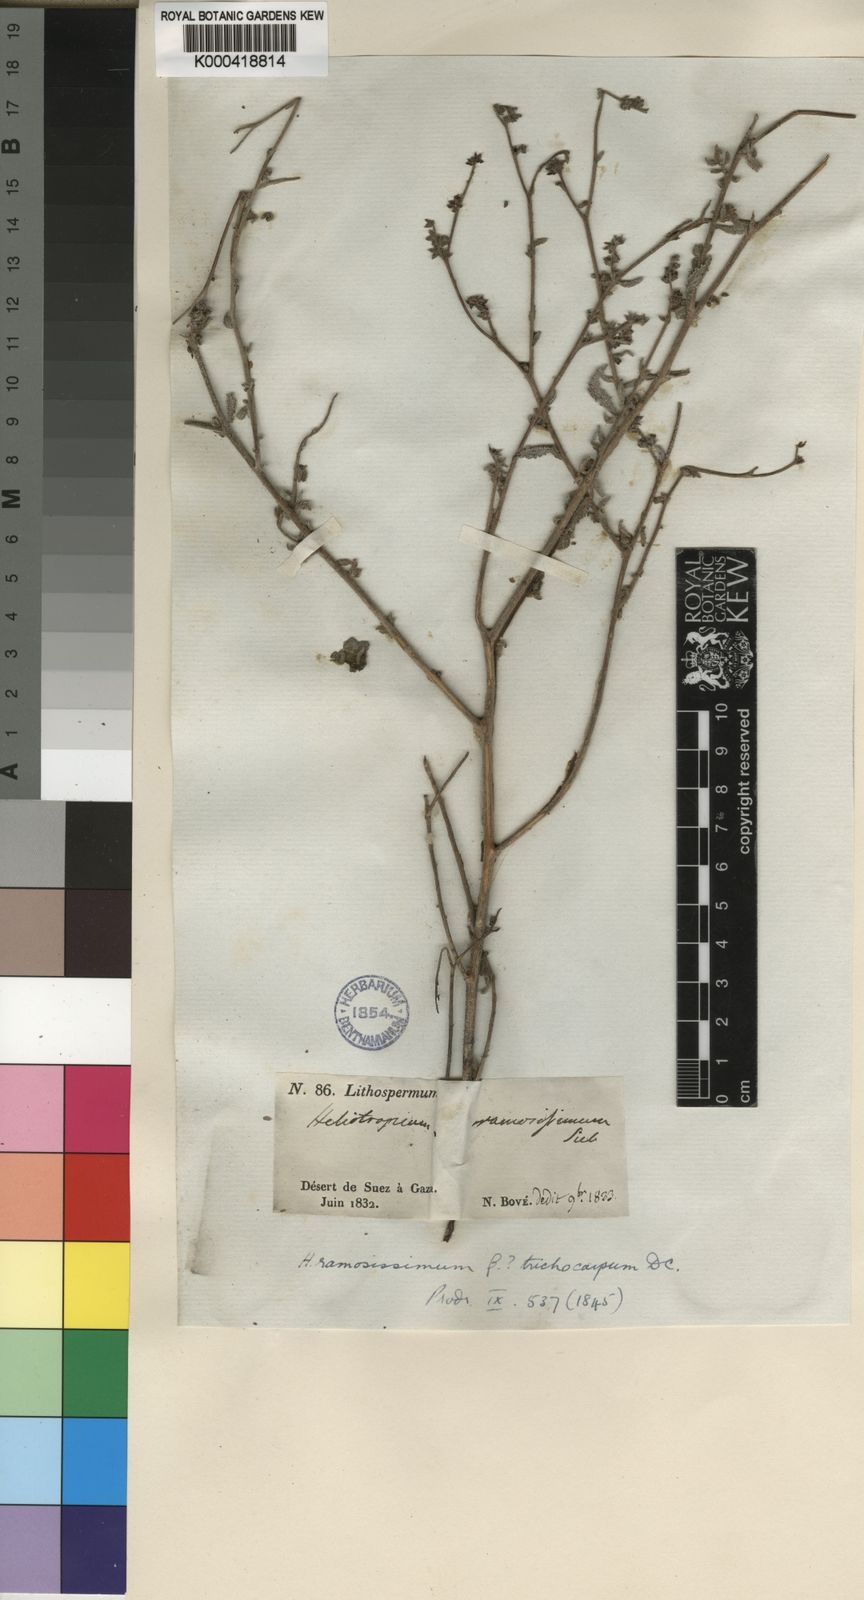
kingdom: Plantae
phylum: Tracheophyta
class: Magnoliopsida
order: Boraginales
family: Heliotropiaceae
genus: Heliotropium
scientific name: Heliotropium
